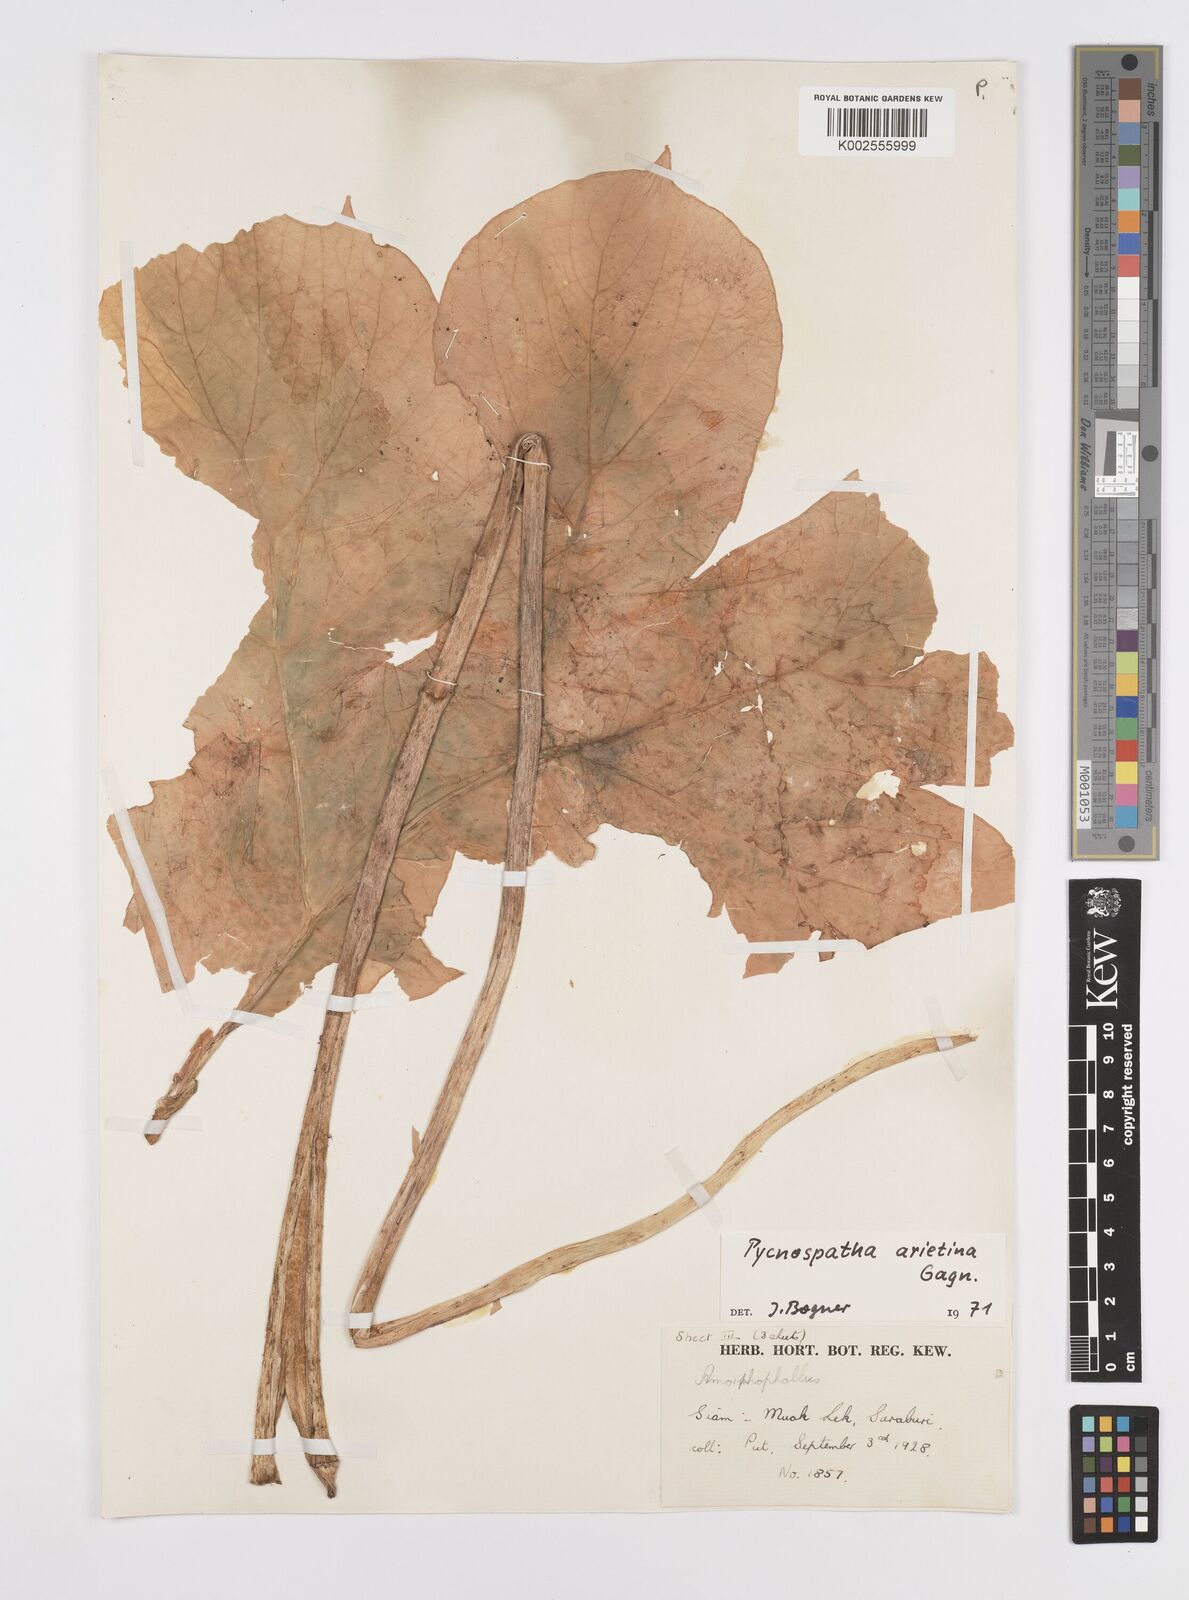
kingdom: Plantae
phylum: Tracheophyta
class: Liliopsida
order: Alismatales
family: Araceae
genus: Pycnospatha
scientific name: Pycnospatha arietina
